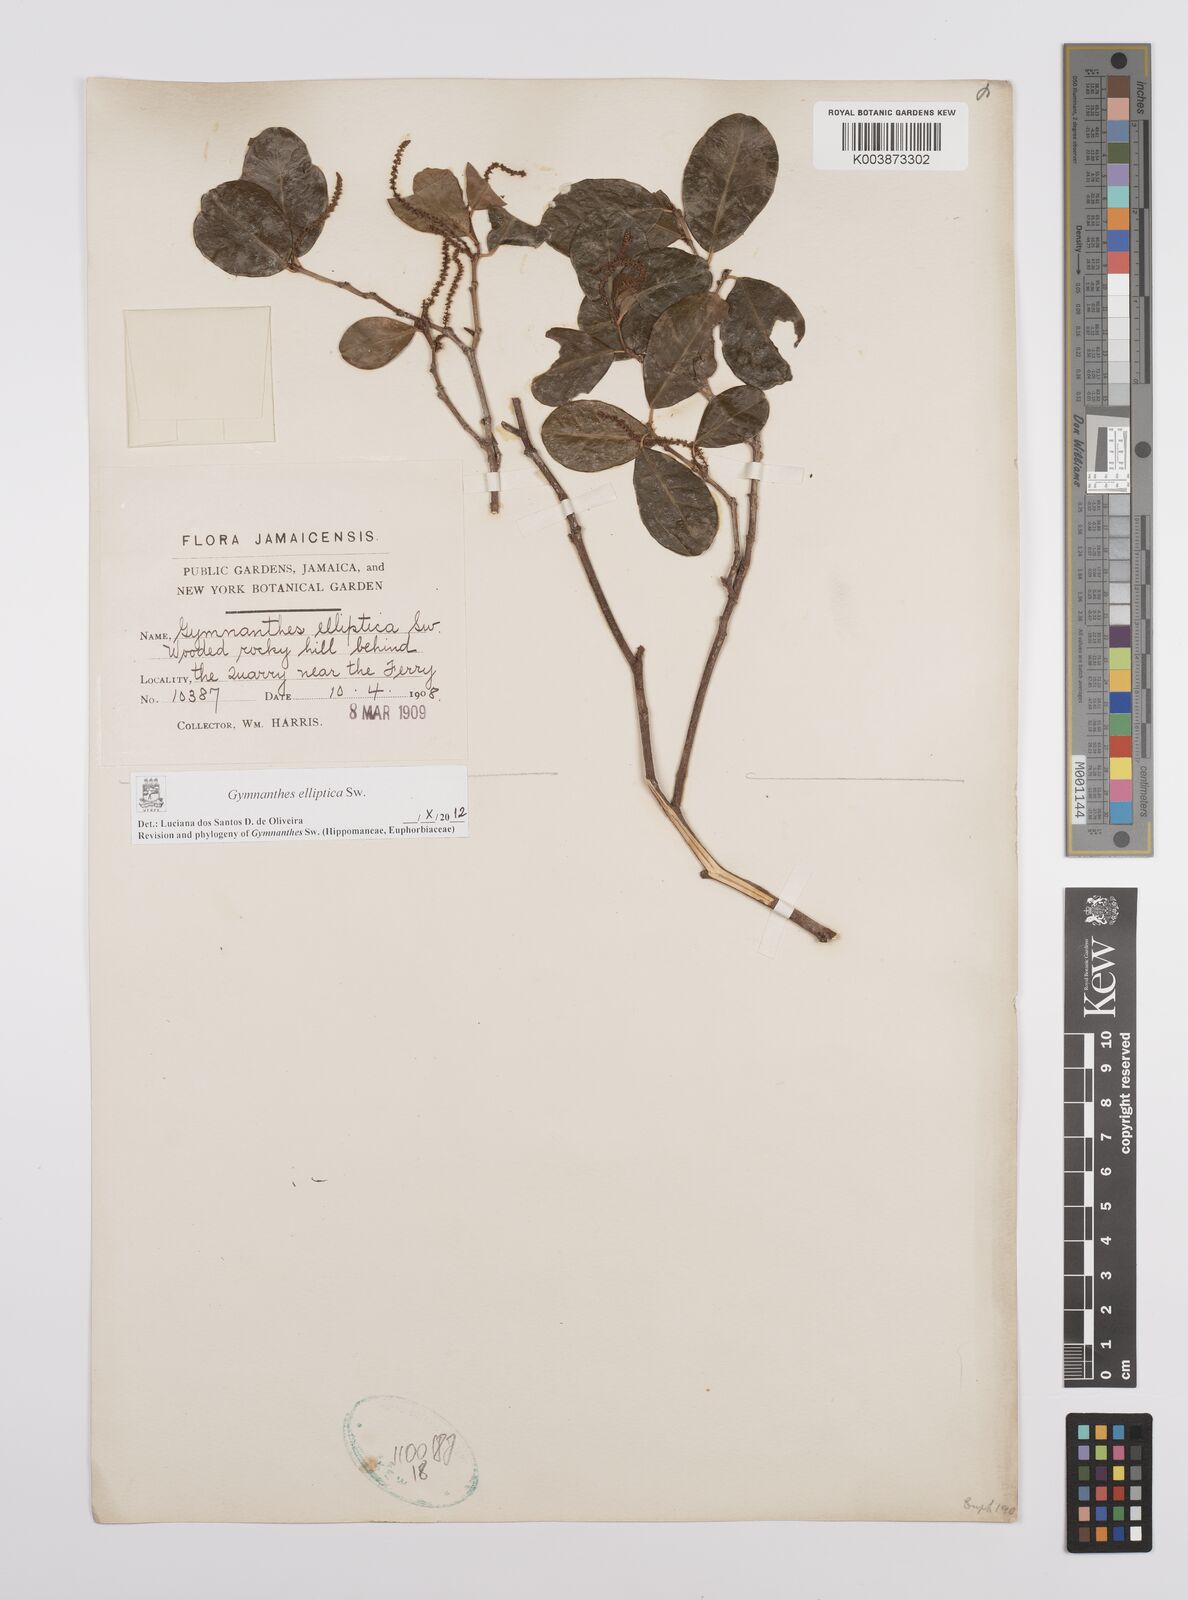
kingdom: Plantae
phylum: Tracheophyta
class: Magnoliopsida
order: Malpighiales
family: Euphorbiaceae
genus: Dendrocousinsia
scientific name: Dendrocousinsia elliptica
